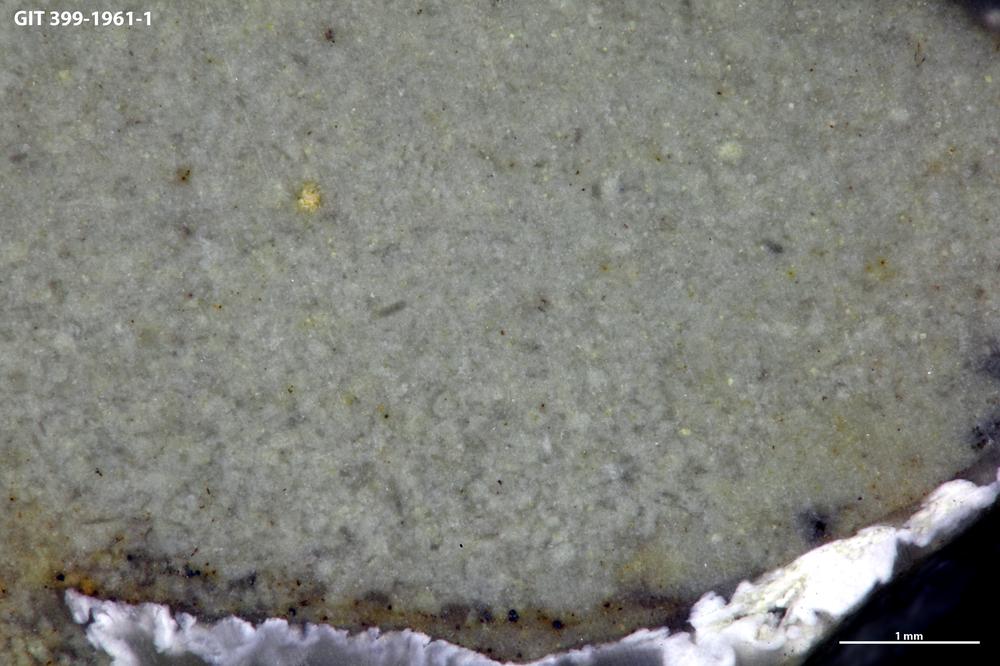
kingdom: Animalia
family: Coprulidae
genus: Coprulus
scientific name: Coprulus
